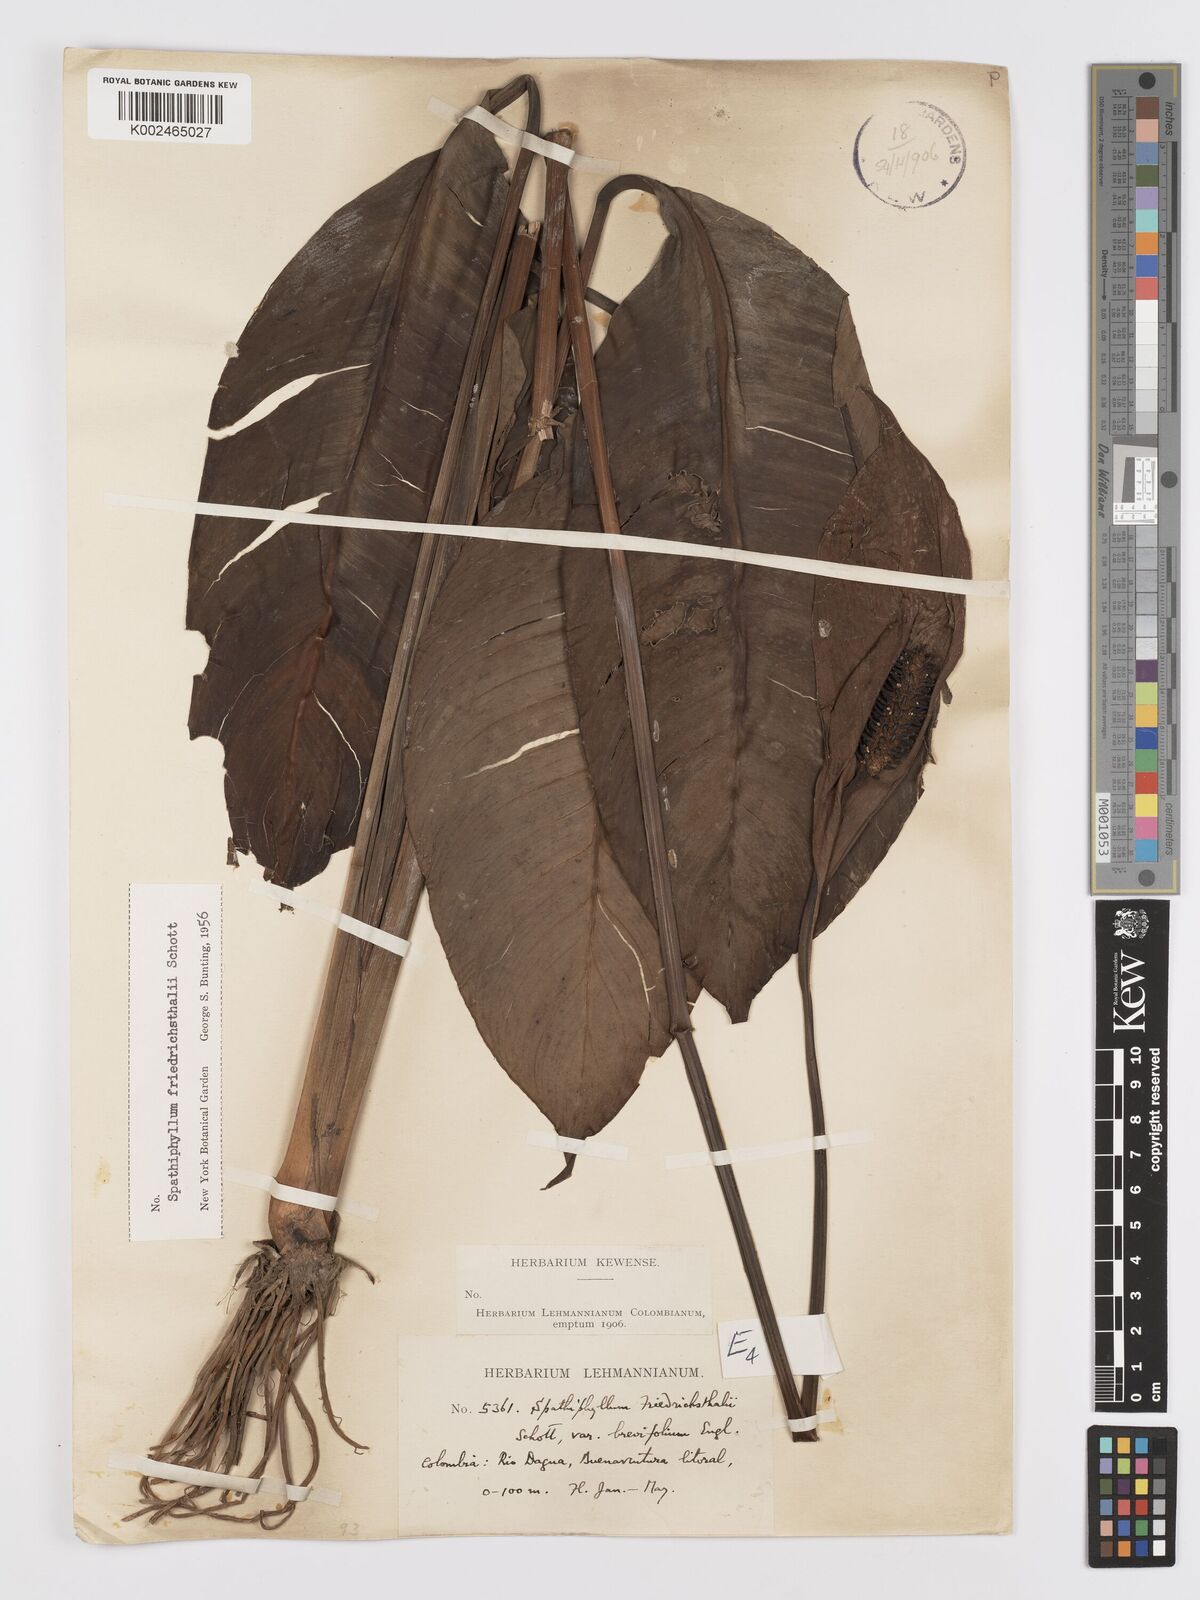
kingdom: Plantae
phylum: Tracheophyta
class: Liliopsida
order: Alismatales
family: Araceae
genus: Spathiphyllum
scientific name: Spathiphyllum friedrichsthalii
